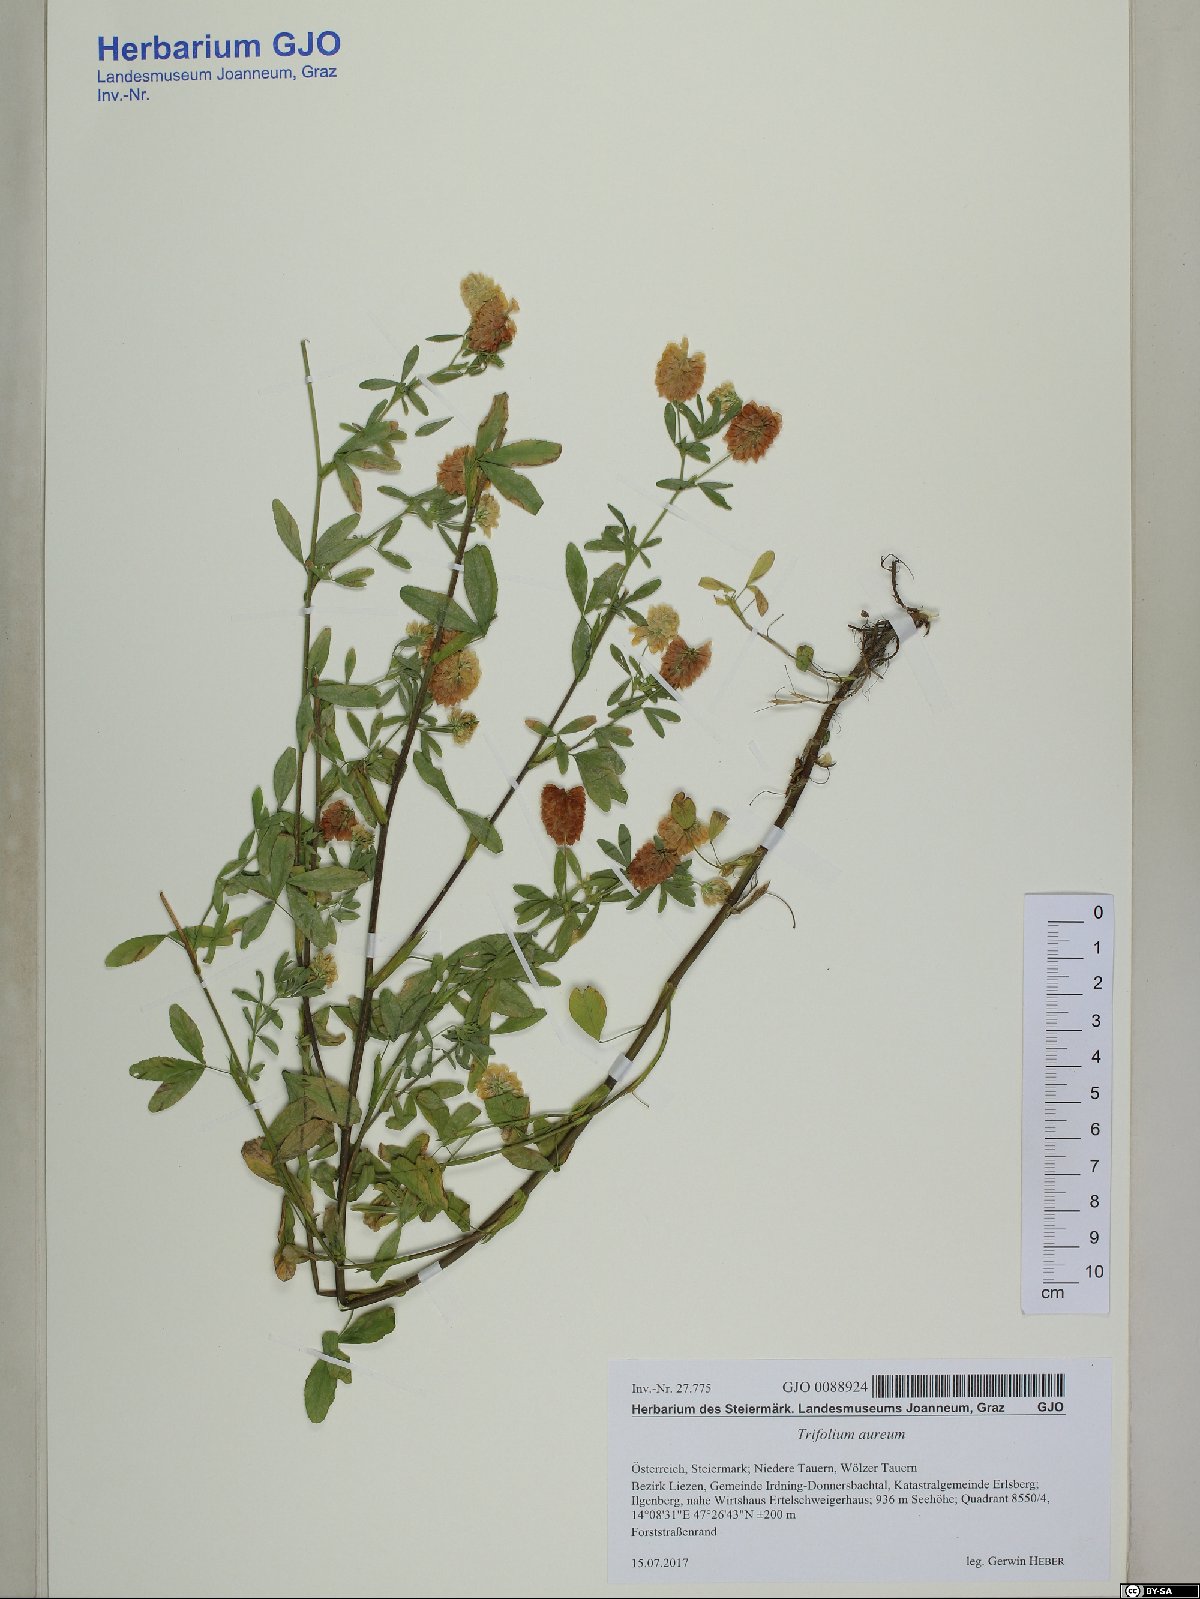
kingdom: Plantae
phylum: Tracheophyta
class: Magnoliopsida
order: Fabales
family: Fabaceae
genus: Trifolium
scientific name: Trifolium aureum
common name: Golden clover
